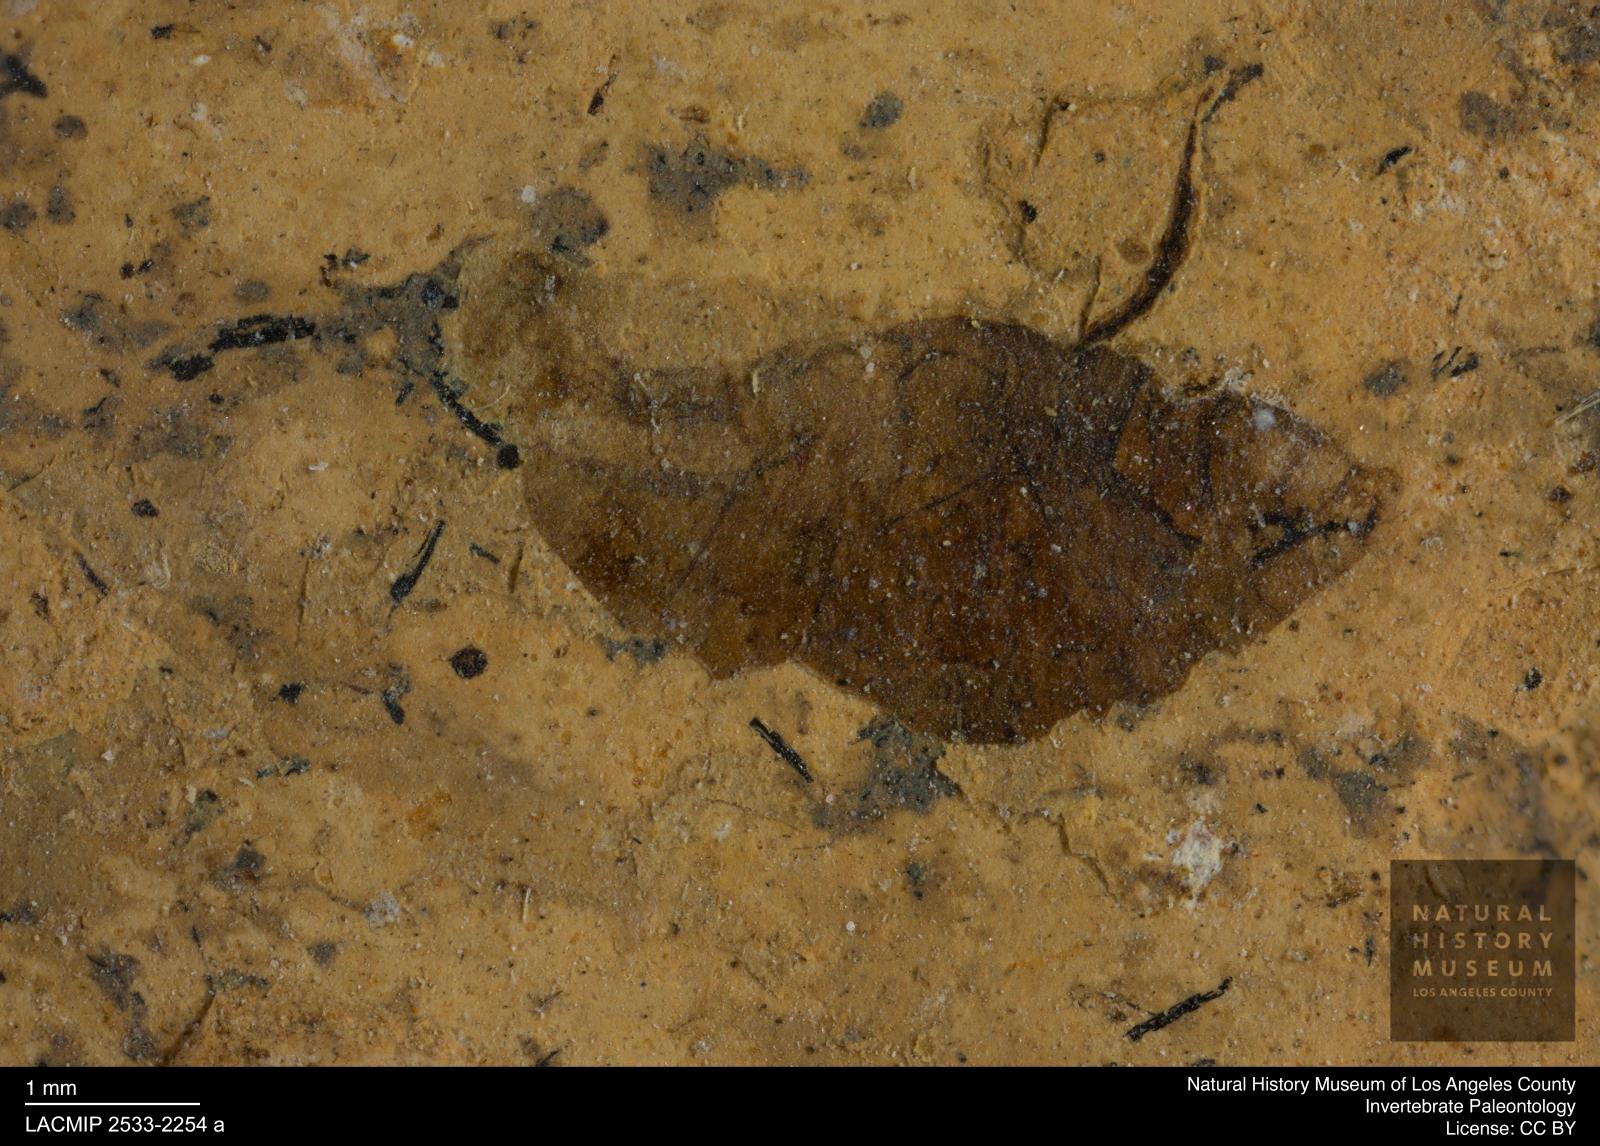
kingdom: Animalia
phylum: Arthropoda
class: Insecta
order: Diptera
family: Syrphidae
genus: Eristalis
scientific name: Eristalis
